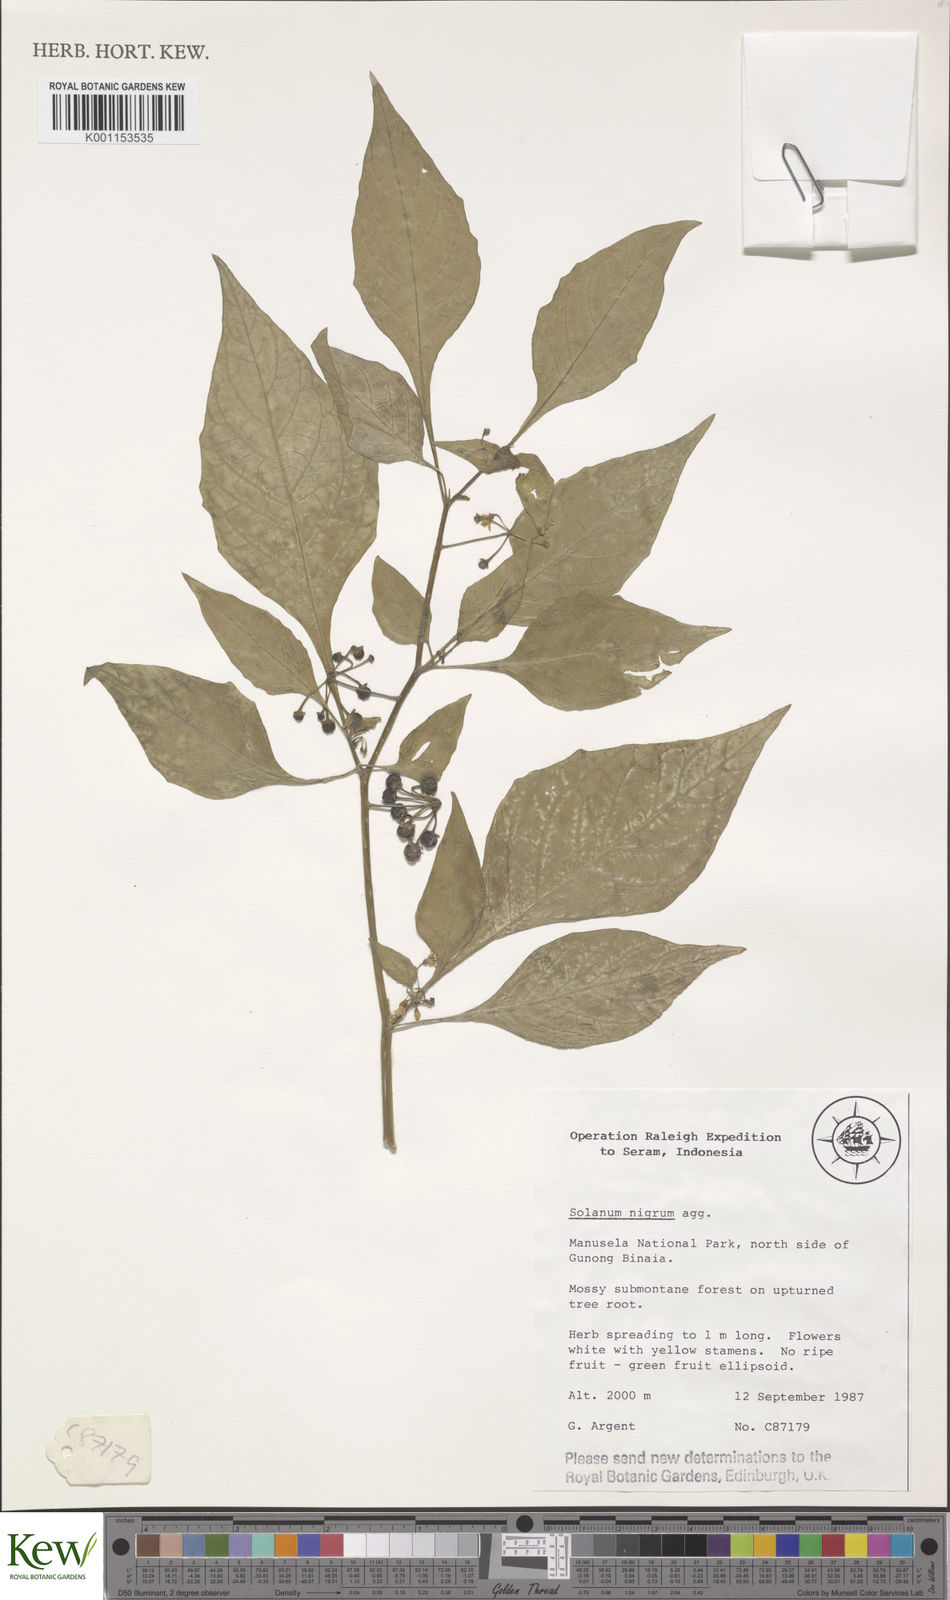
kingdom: Plantae
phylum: Tracheophyta
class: Magnoliopsida
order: Solanales
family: Solanaceae
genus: Solanum
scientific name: Solanum nigrum
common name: Black nightshade
